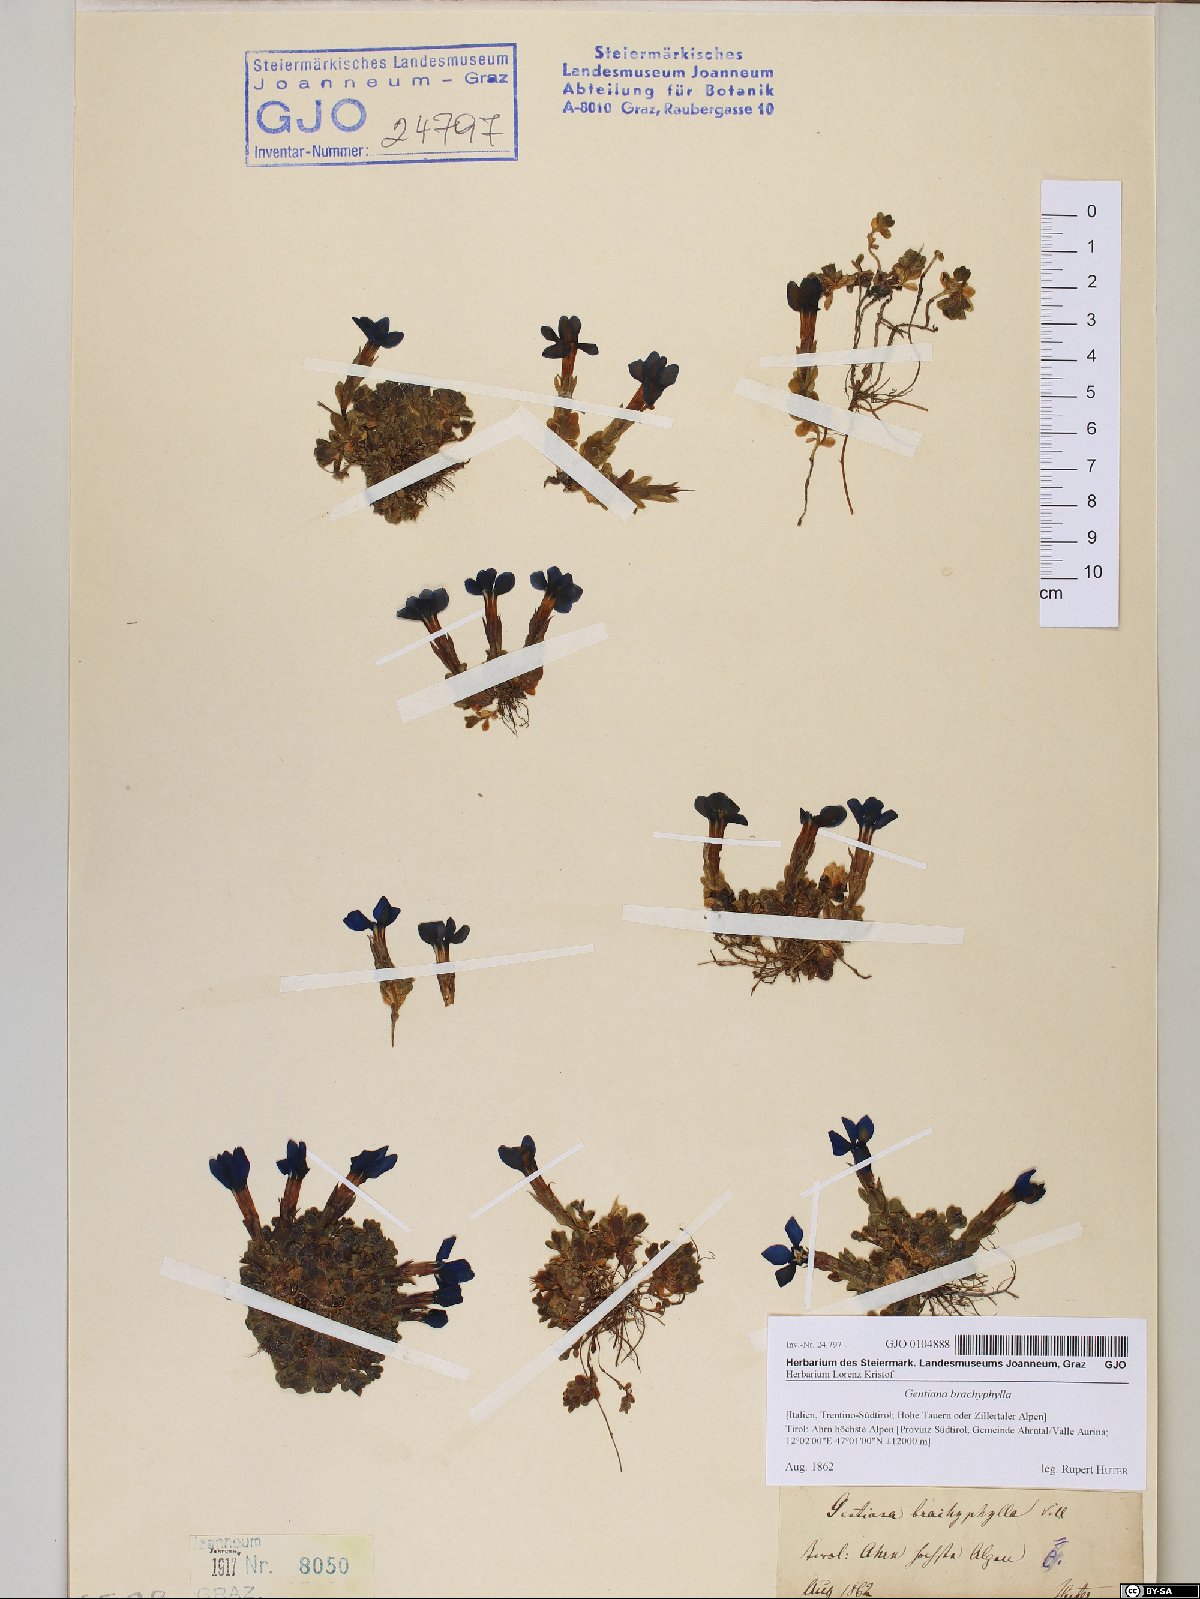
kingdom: Plantae
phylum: Tracheophyta
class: Magnoliopsida
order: Gentianales
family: Gentianaceae
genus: Gentiana
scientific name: Gentiana brachyphylla
